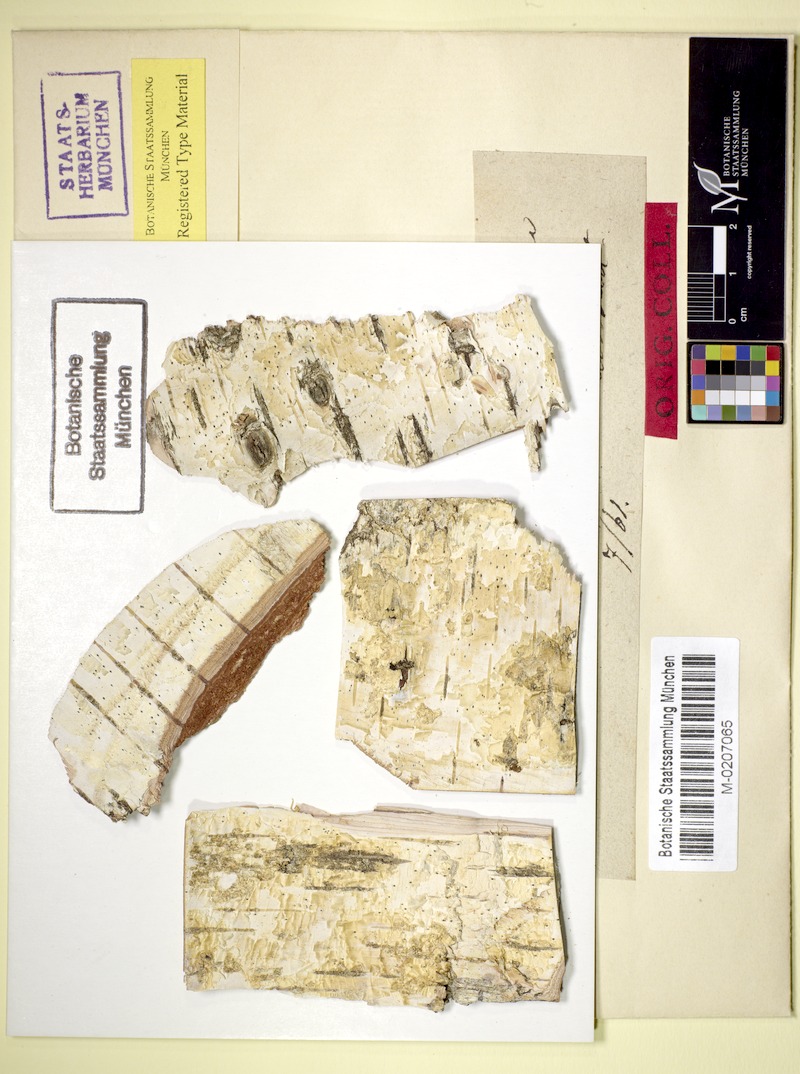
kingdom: Fungi
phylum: Ascomycota
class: Dothideomycetes
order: Trypetheliales
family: Trypetheliaceae
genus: Arthopyrenia
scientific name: Arthopyrenia fallaciosa
